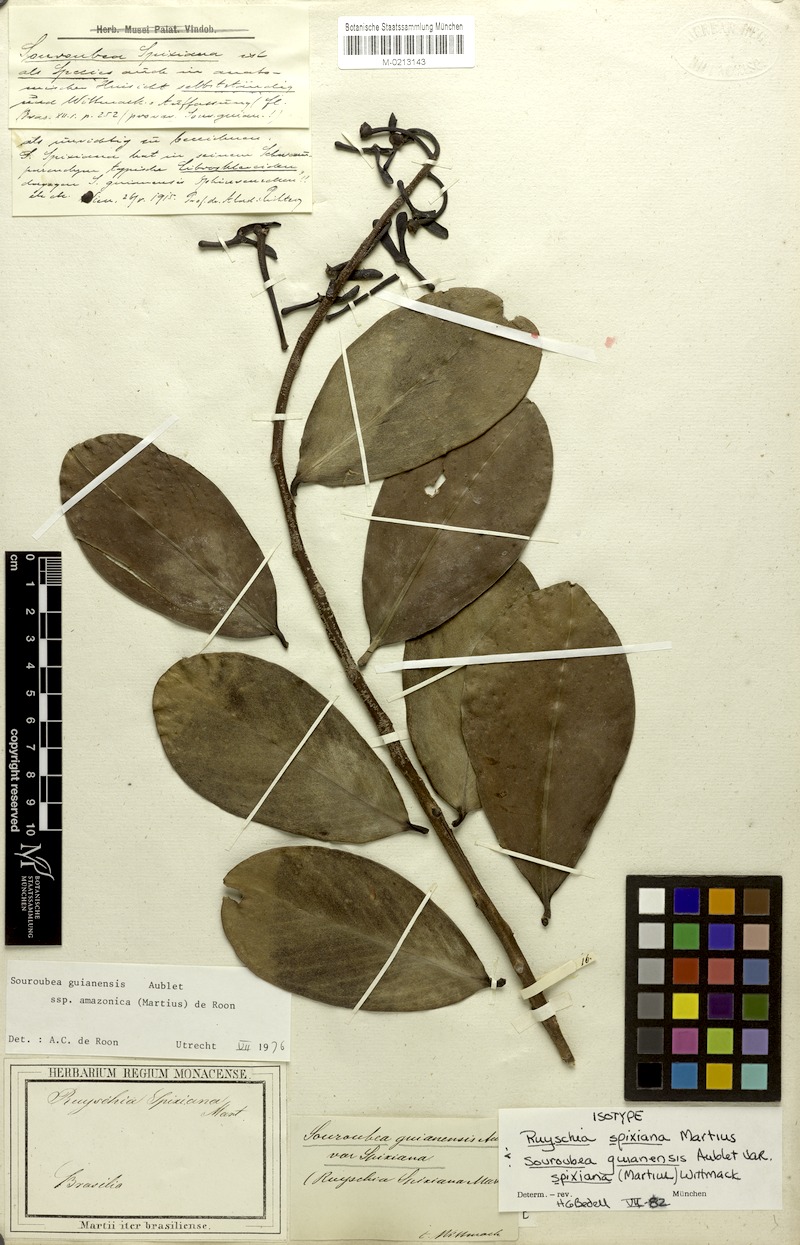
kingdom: Plantae
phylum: Tracheophyta
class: Magnoliopsida
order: Ericales
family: Marcgraviaceae
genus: Souroubea
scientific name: Souroubea guianensis
